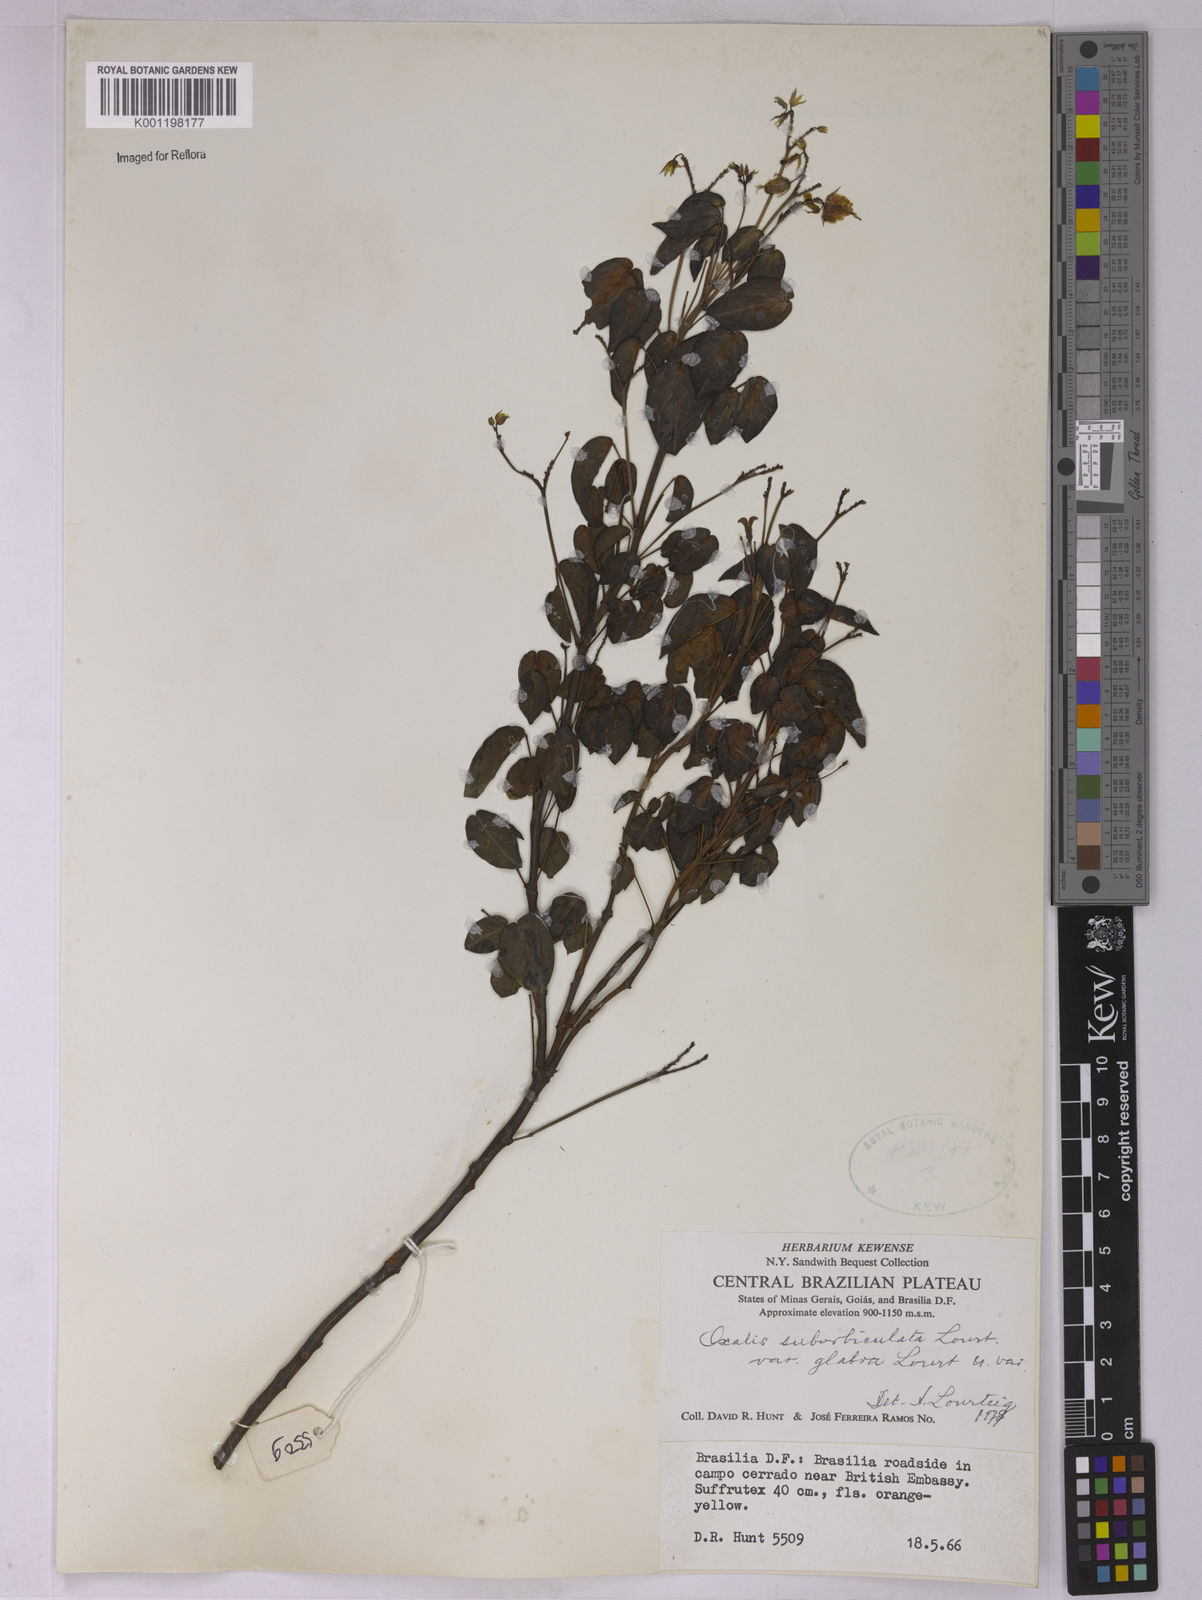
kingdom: Plantae
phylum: Tracheophyta
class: Magnoliopsida
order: Oxalidales
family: Oxalidaceae
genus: Oxalis
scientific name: Oxalis suborbiculata
